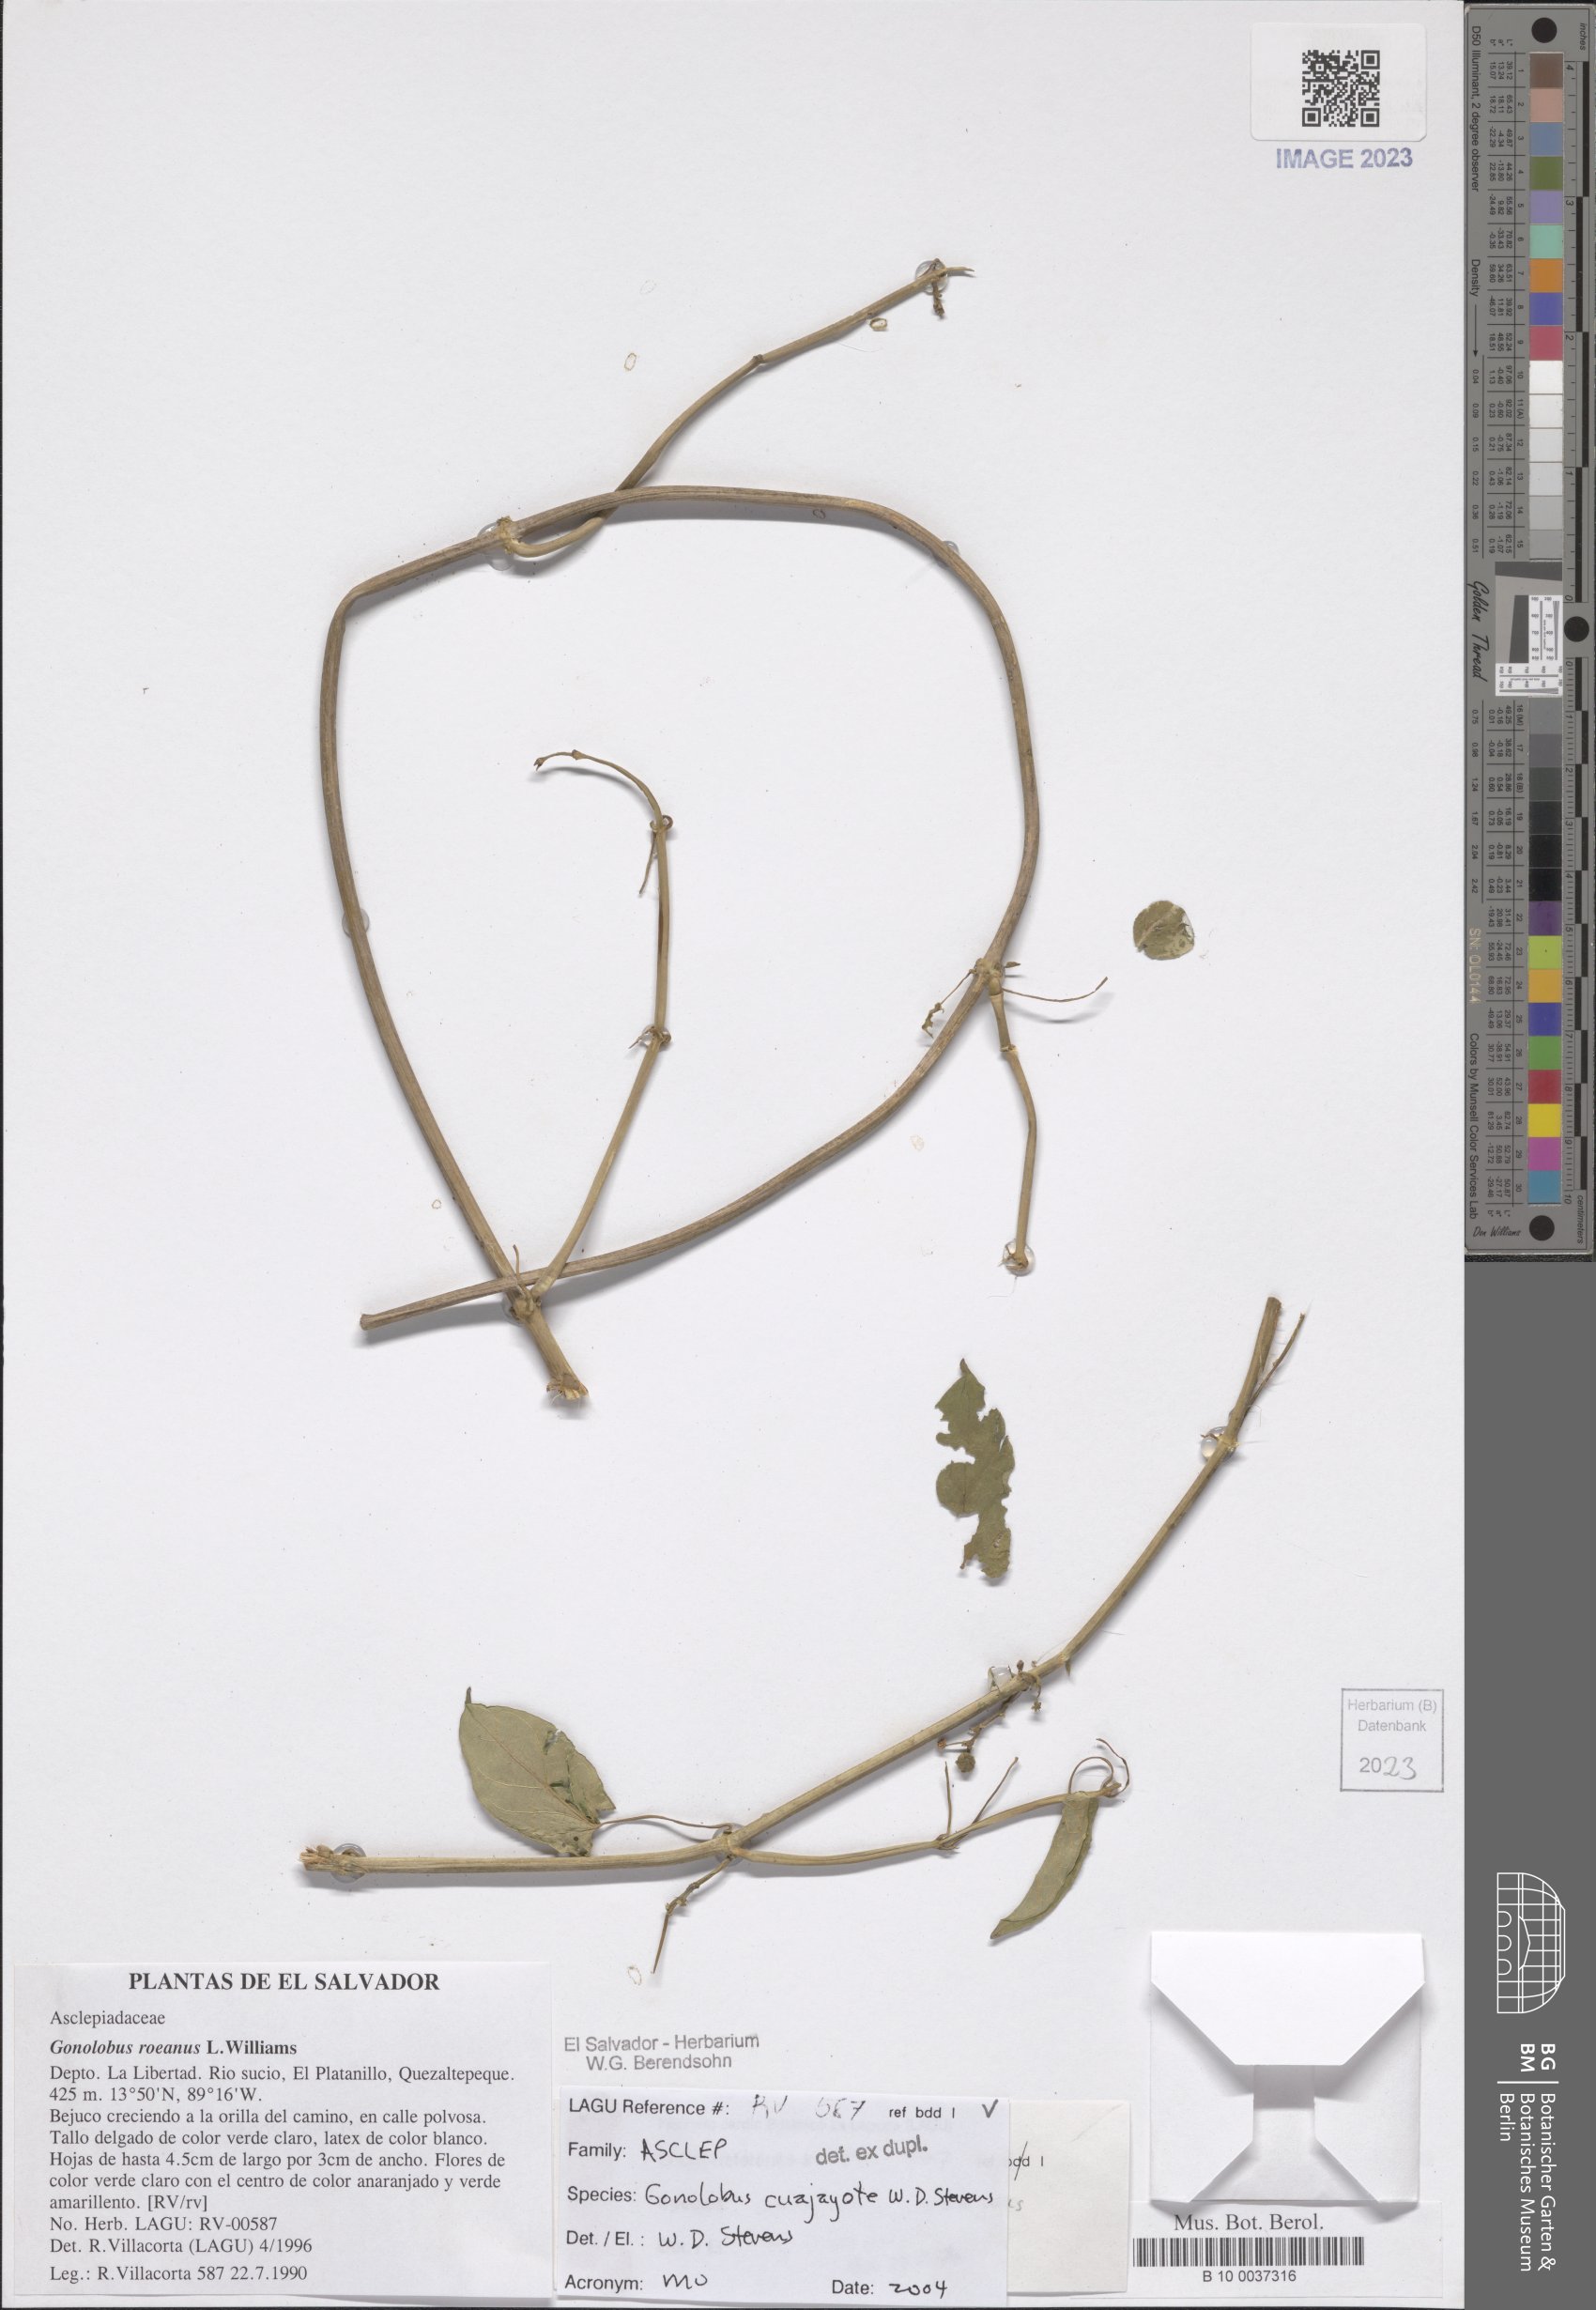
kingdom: Plantae
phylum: Tracheophyta
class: Magnoliopsida
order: Gentianales
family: Apocynaceae
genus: Gonolobus
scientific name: Gonolobus cuajayote
